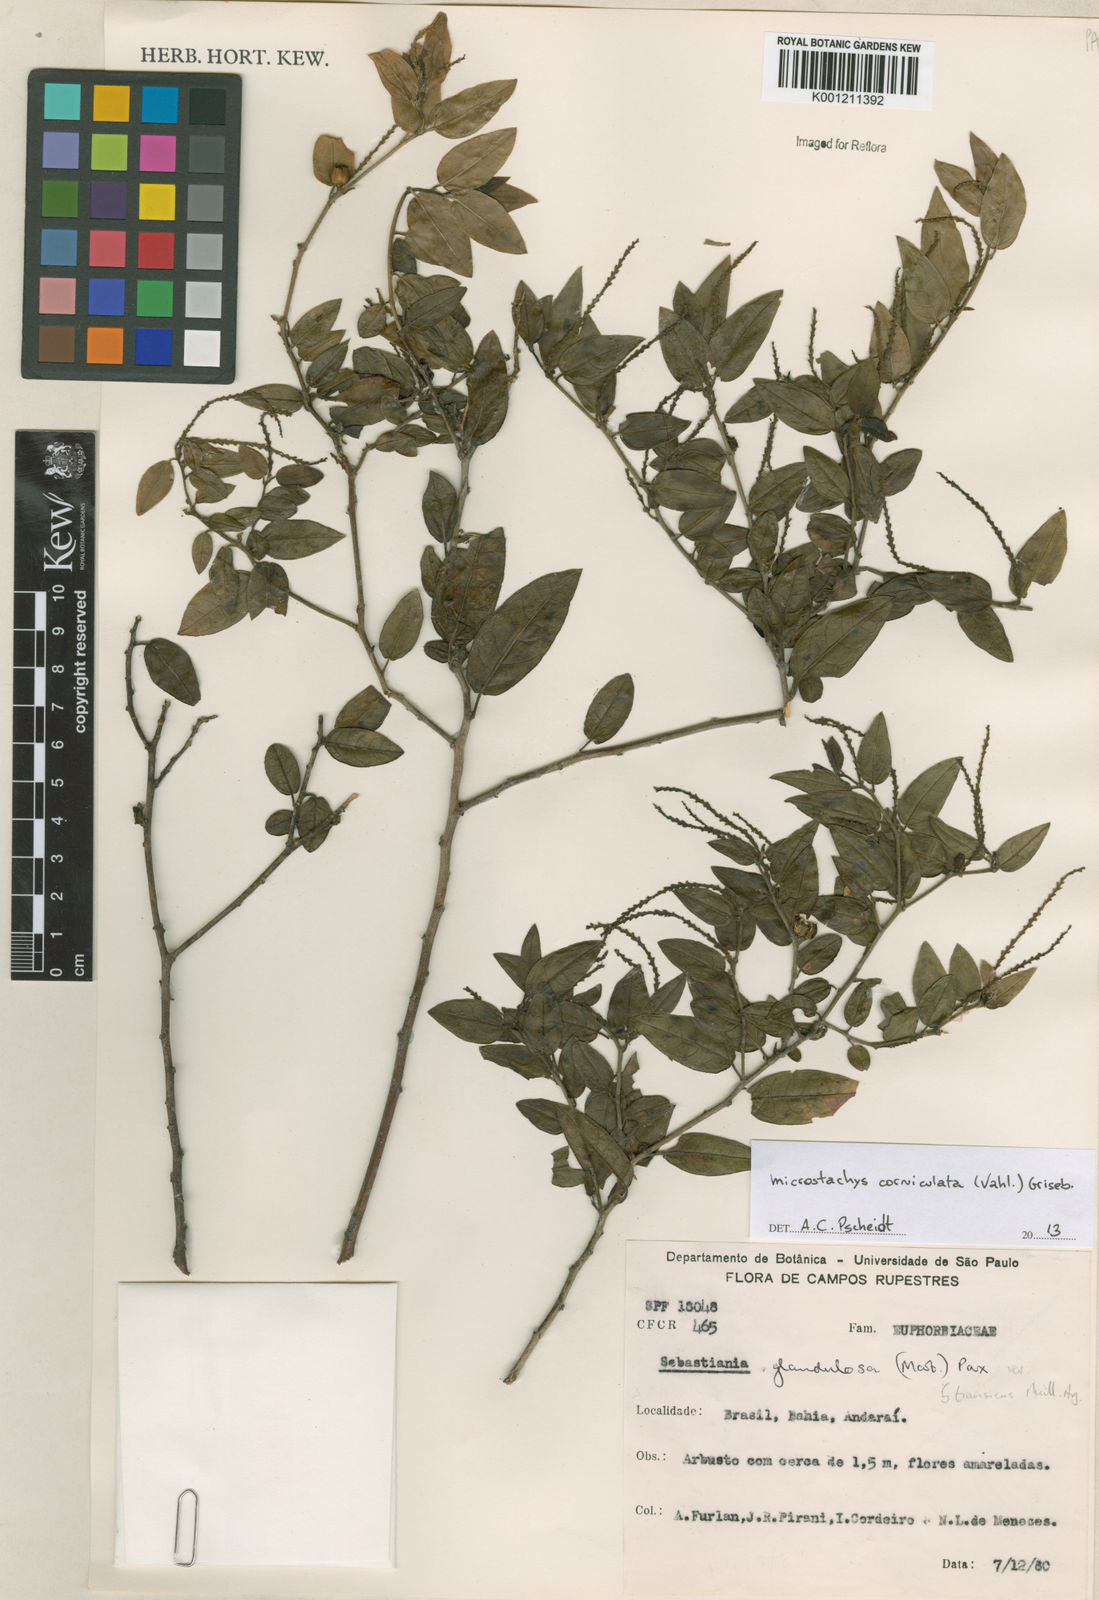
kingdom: Plantae
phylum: Tracheophyta
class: Magnoliopsida
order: Malpighiales
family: Euphorbiaceae
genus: Microstachys
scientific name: Microstachys corniculata
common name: Hato tejas
